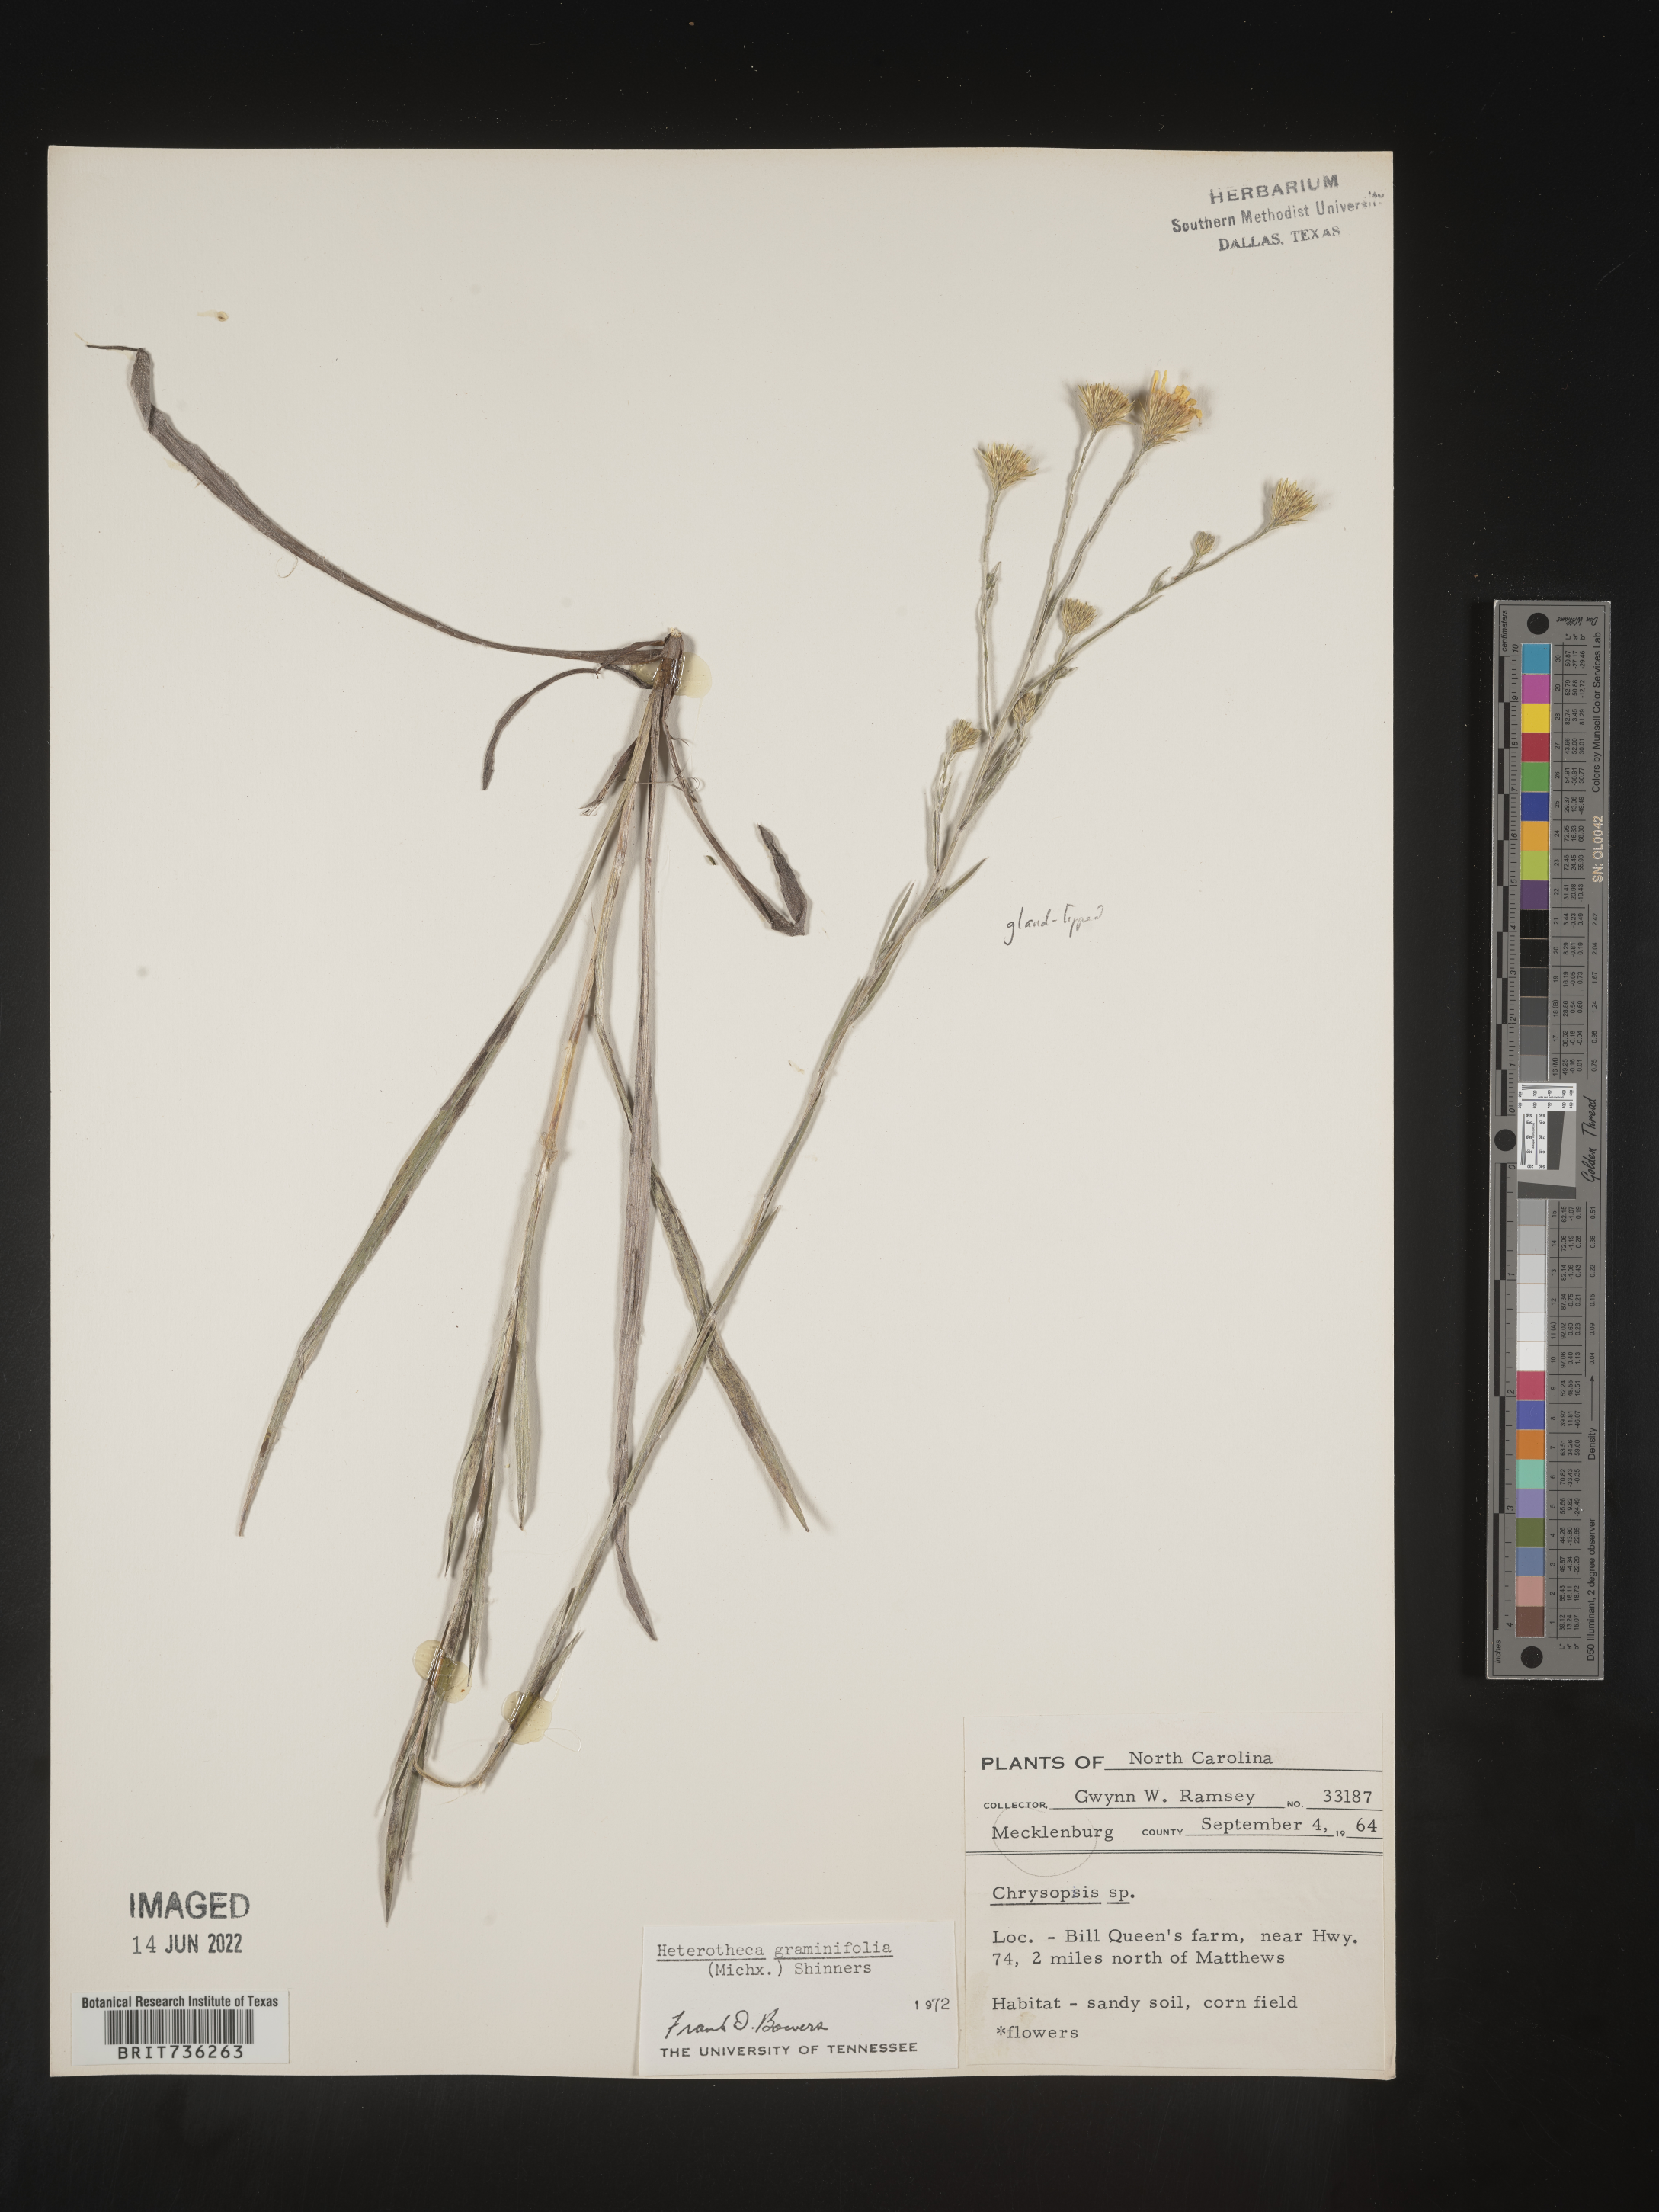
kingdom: Plantae
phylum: Tracheophyta
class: Magnoliopsida
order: Asterales
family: Asteraceae
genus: Pityopsis
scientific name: Pityopsis graminifolia
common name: Grass-leaf golden-aster
